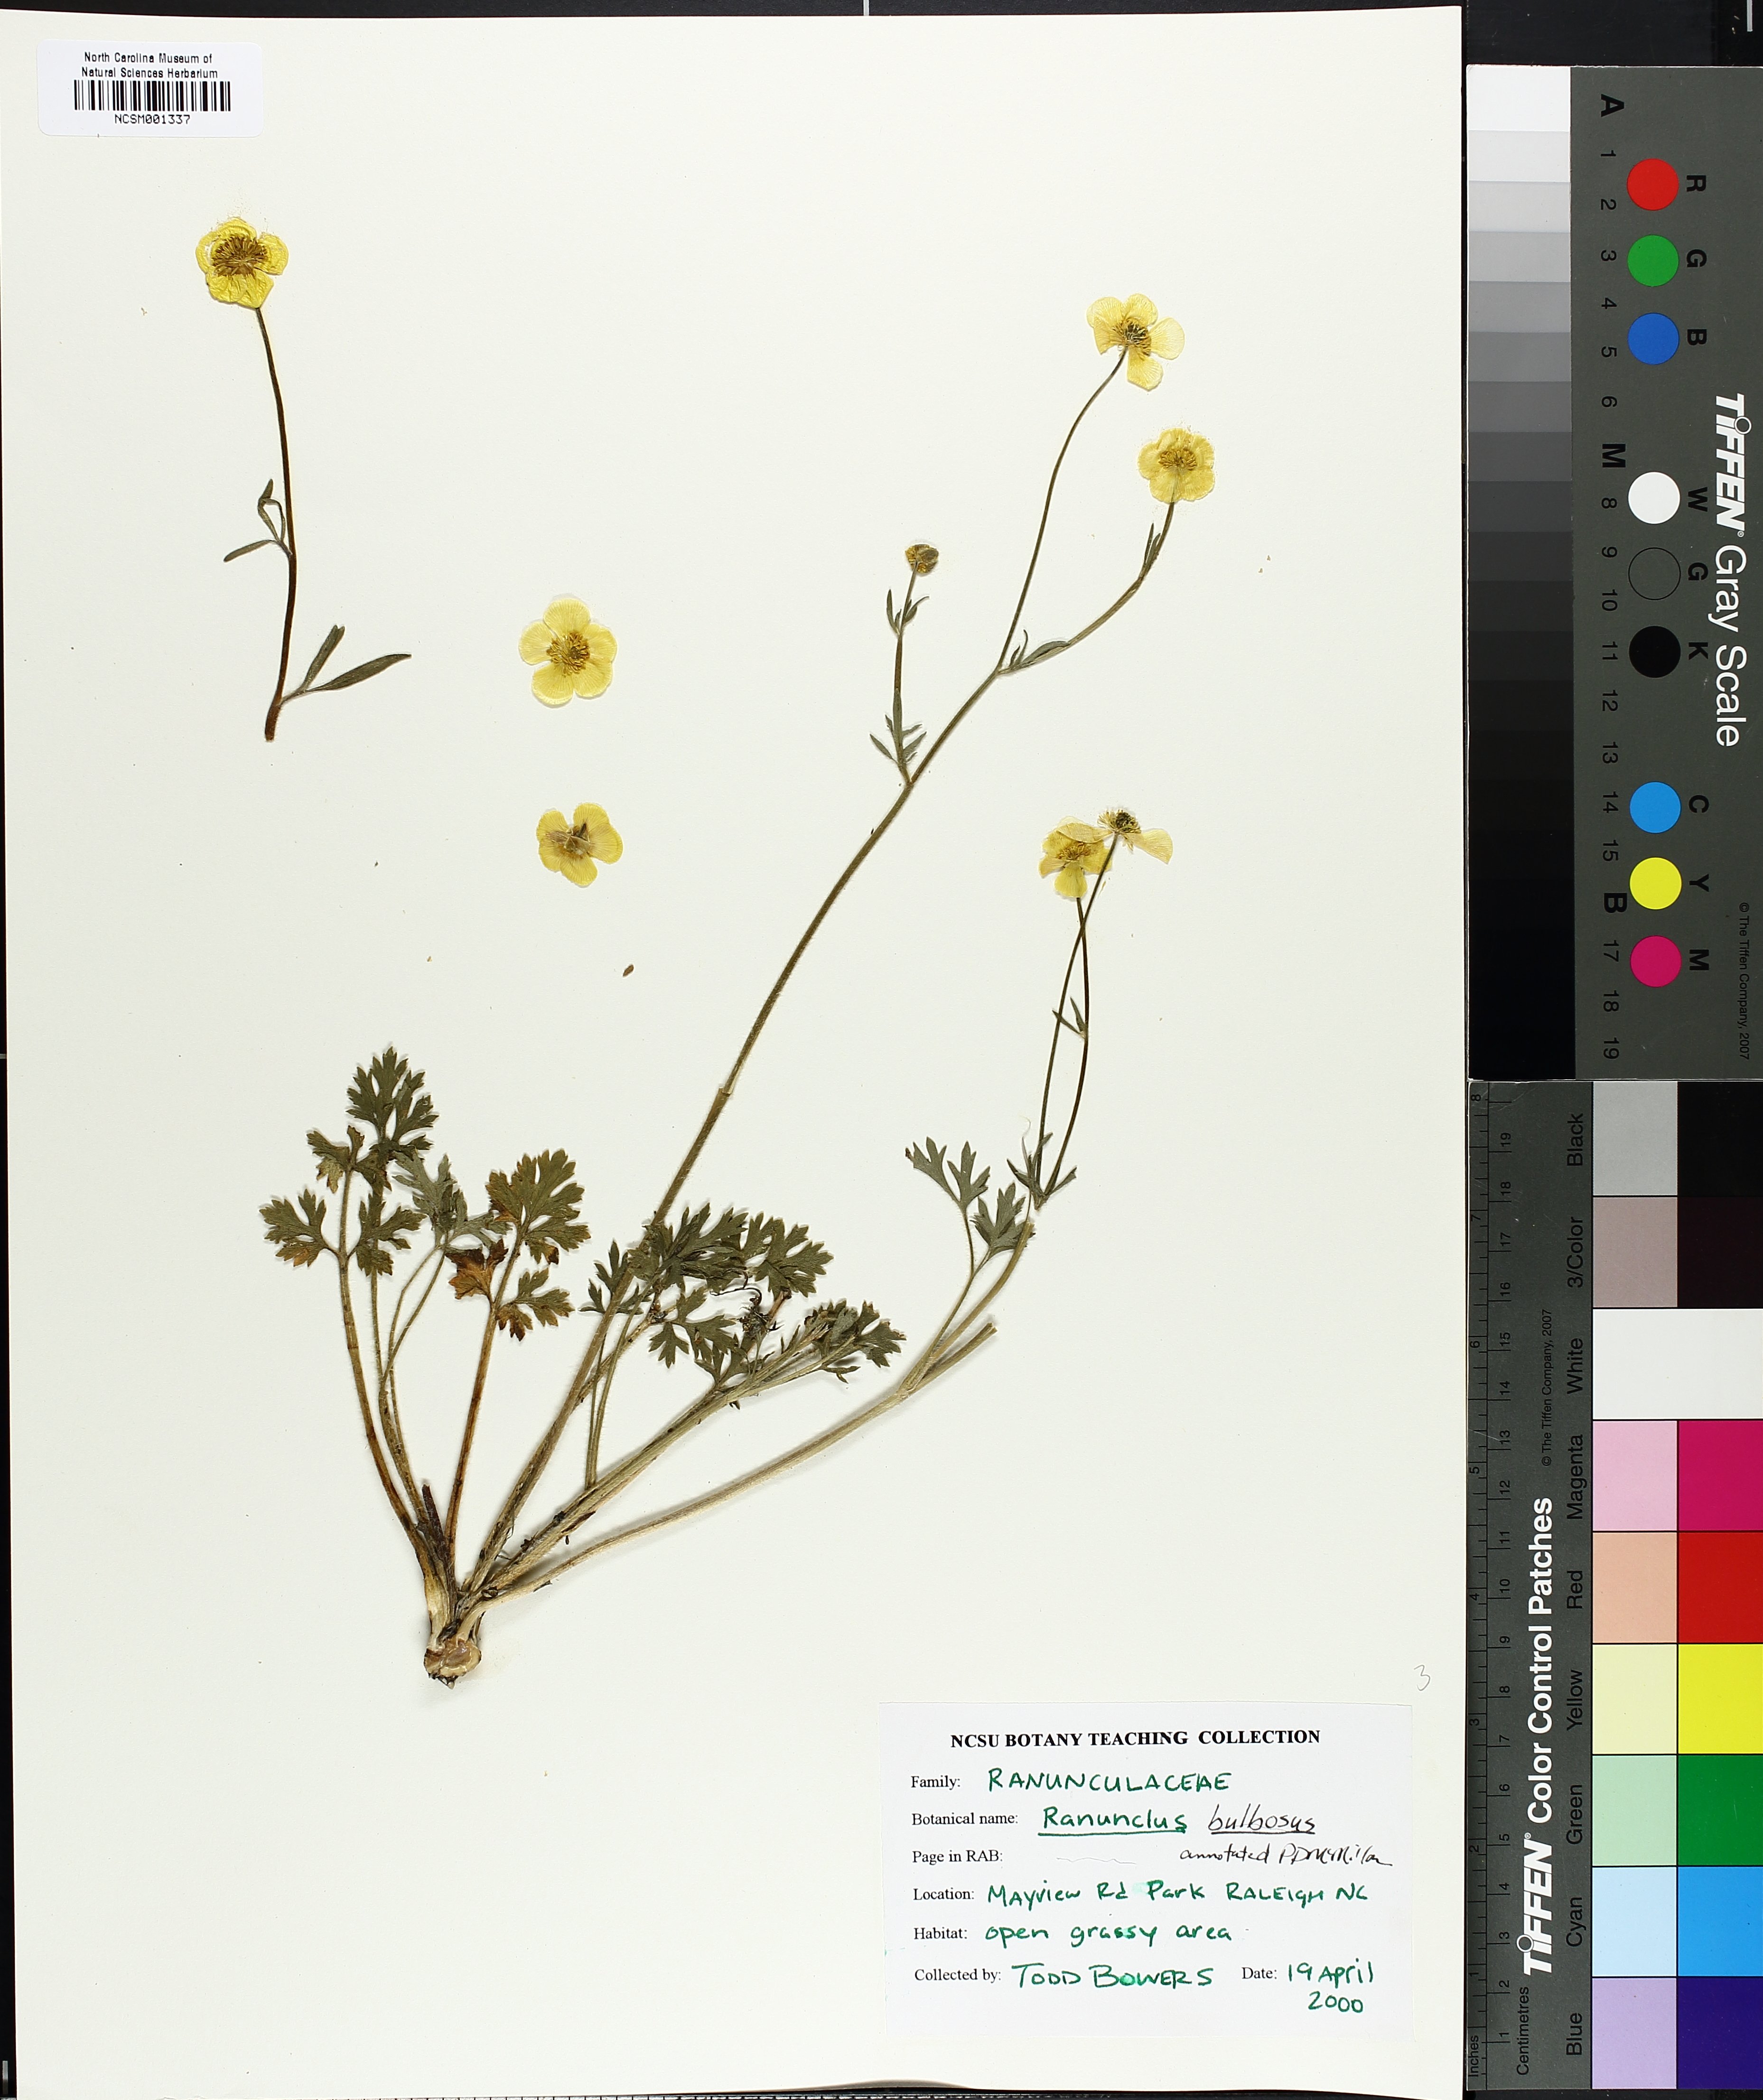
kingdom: Plantae
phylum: Tracheophyta
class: Magnoliopsida
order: Ranunculales
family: Ranunculaceae
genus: Ranunculus
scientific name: Ranunculus bulbosus
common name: Bulbous buttercup
